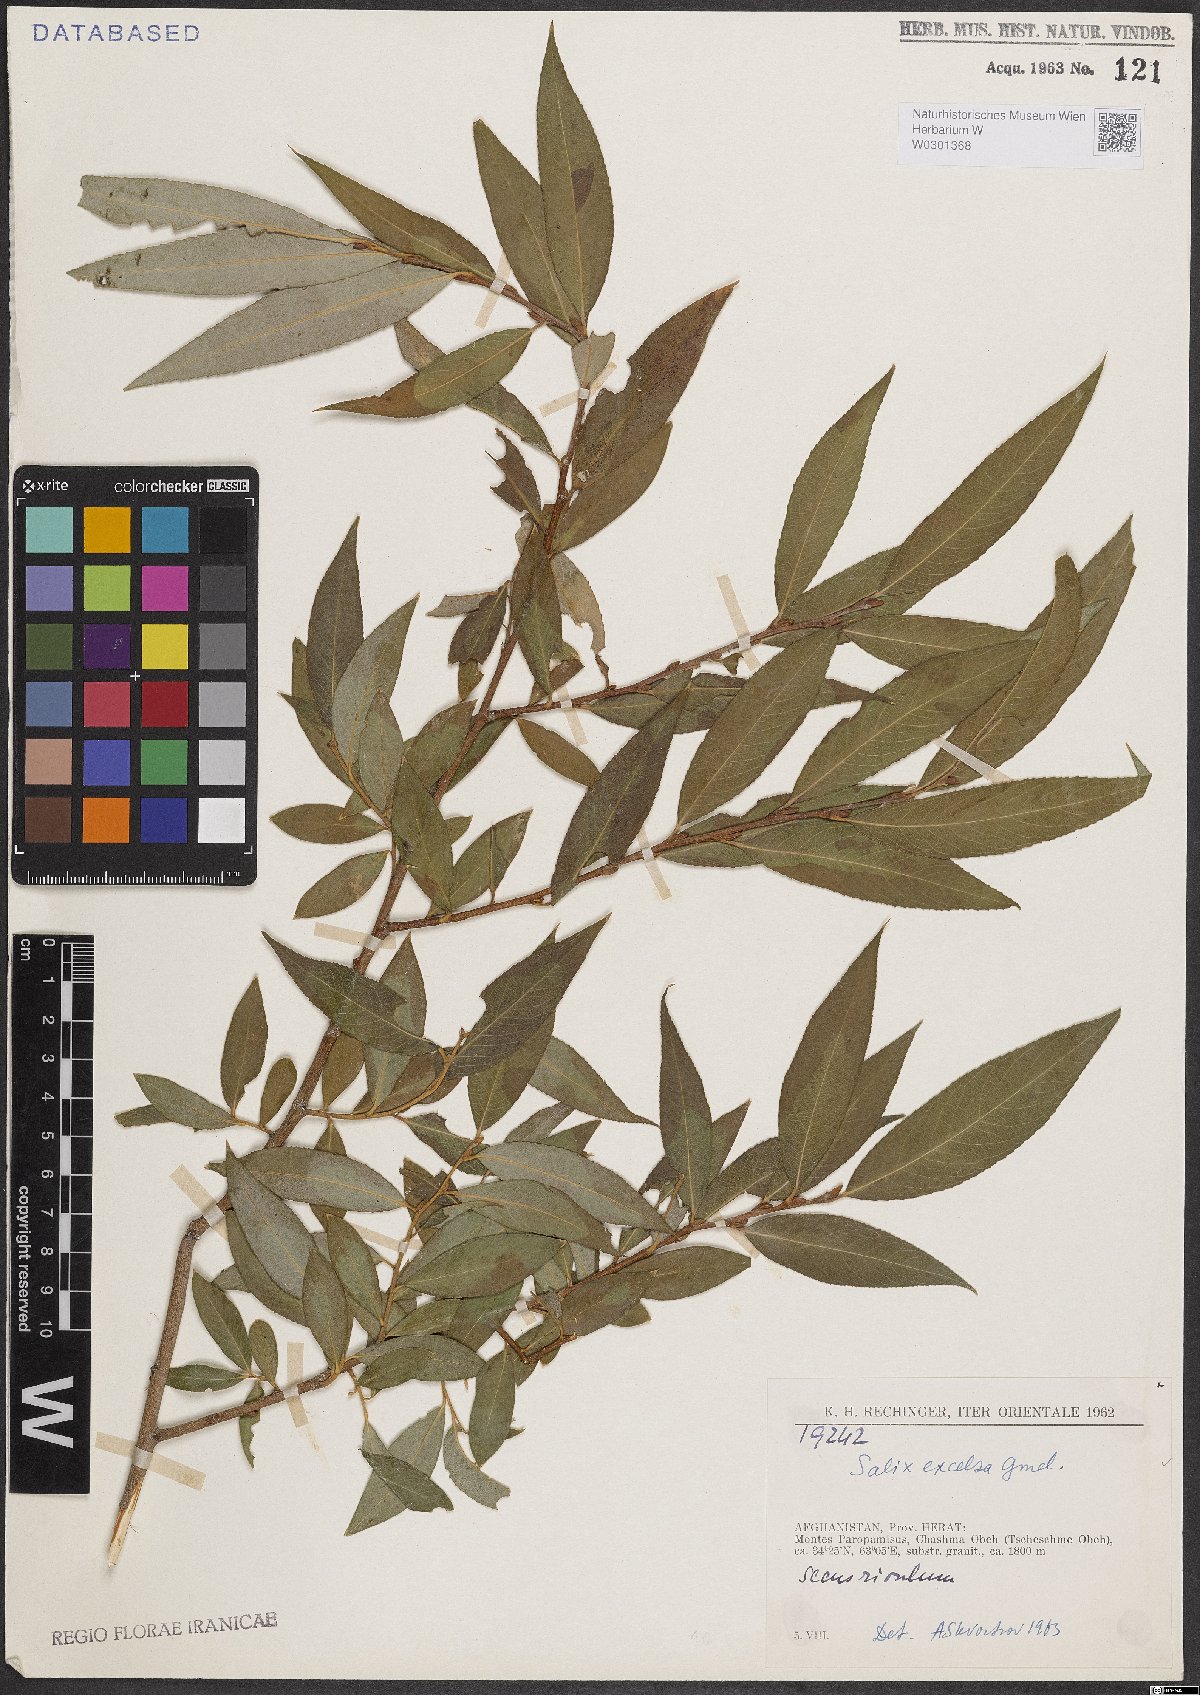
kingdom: Plantae
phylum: Tracheophyta
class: Magnoliopsida
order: Malpighiales
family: Salicaceae
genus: Salix
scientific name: Salix excelsa
